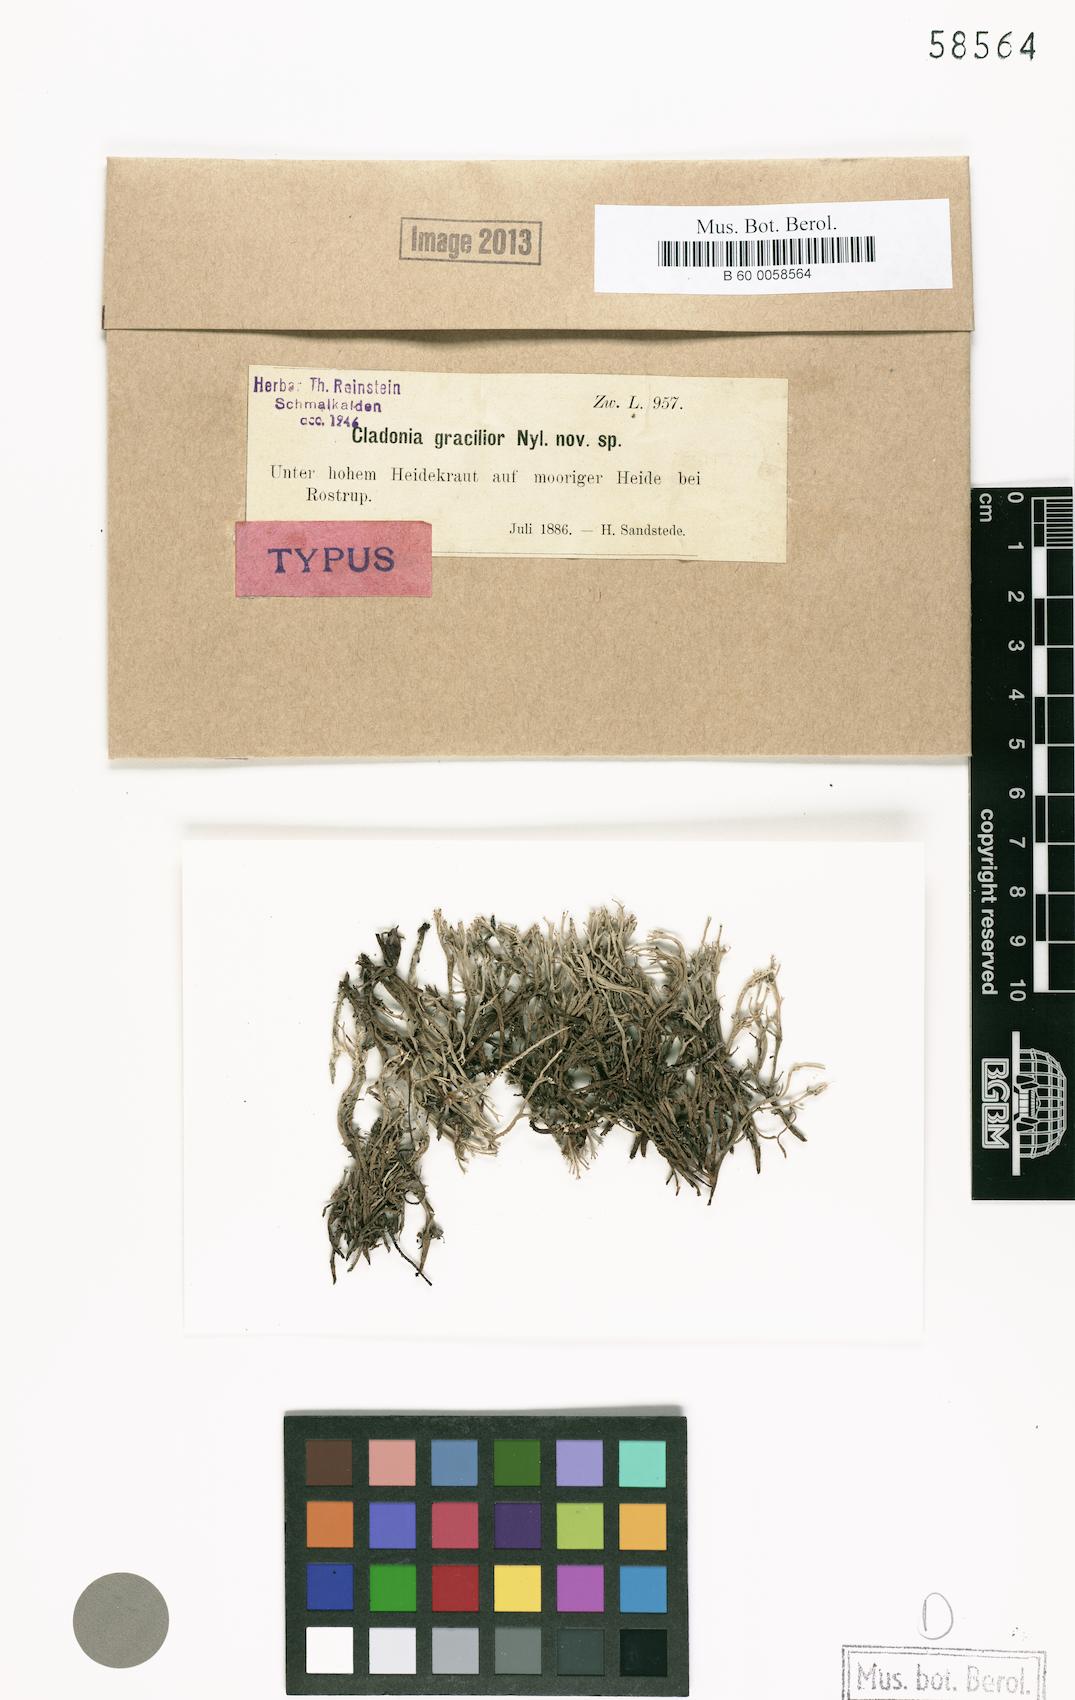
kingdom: Fungi
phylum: Ascomycota
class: Lecanoromycetes
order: Lecanorales
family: Cladoniaceae
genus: Cladonia
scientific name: Cladonia ramulosa
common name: Branched pixie-cup lichen
